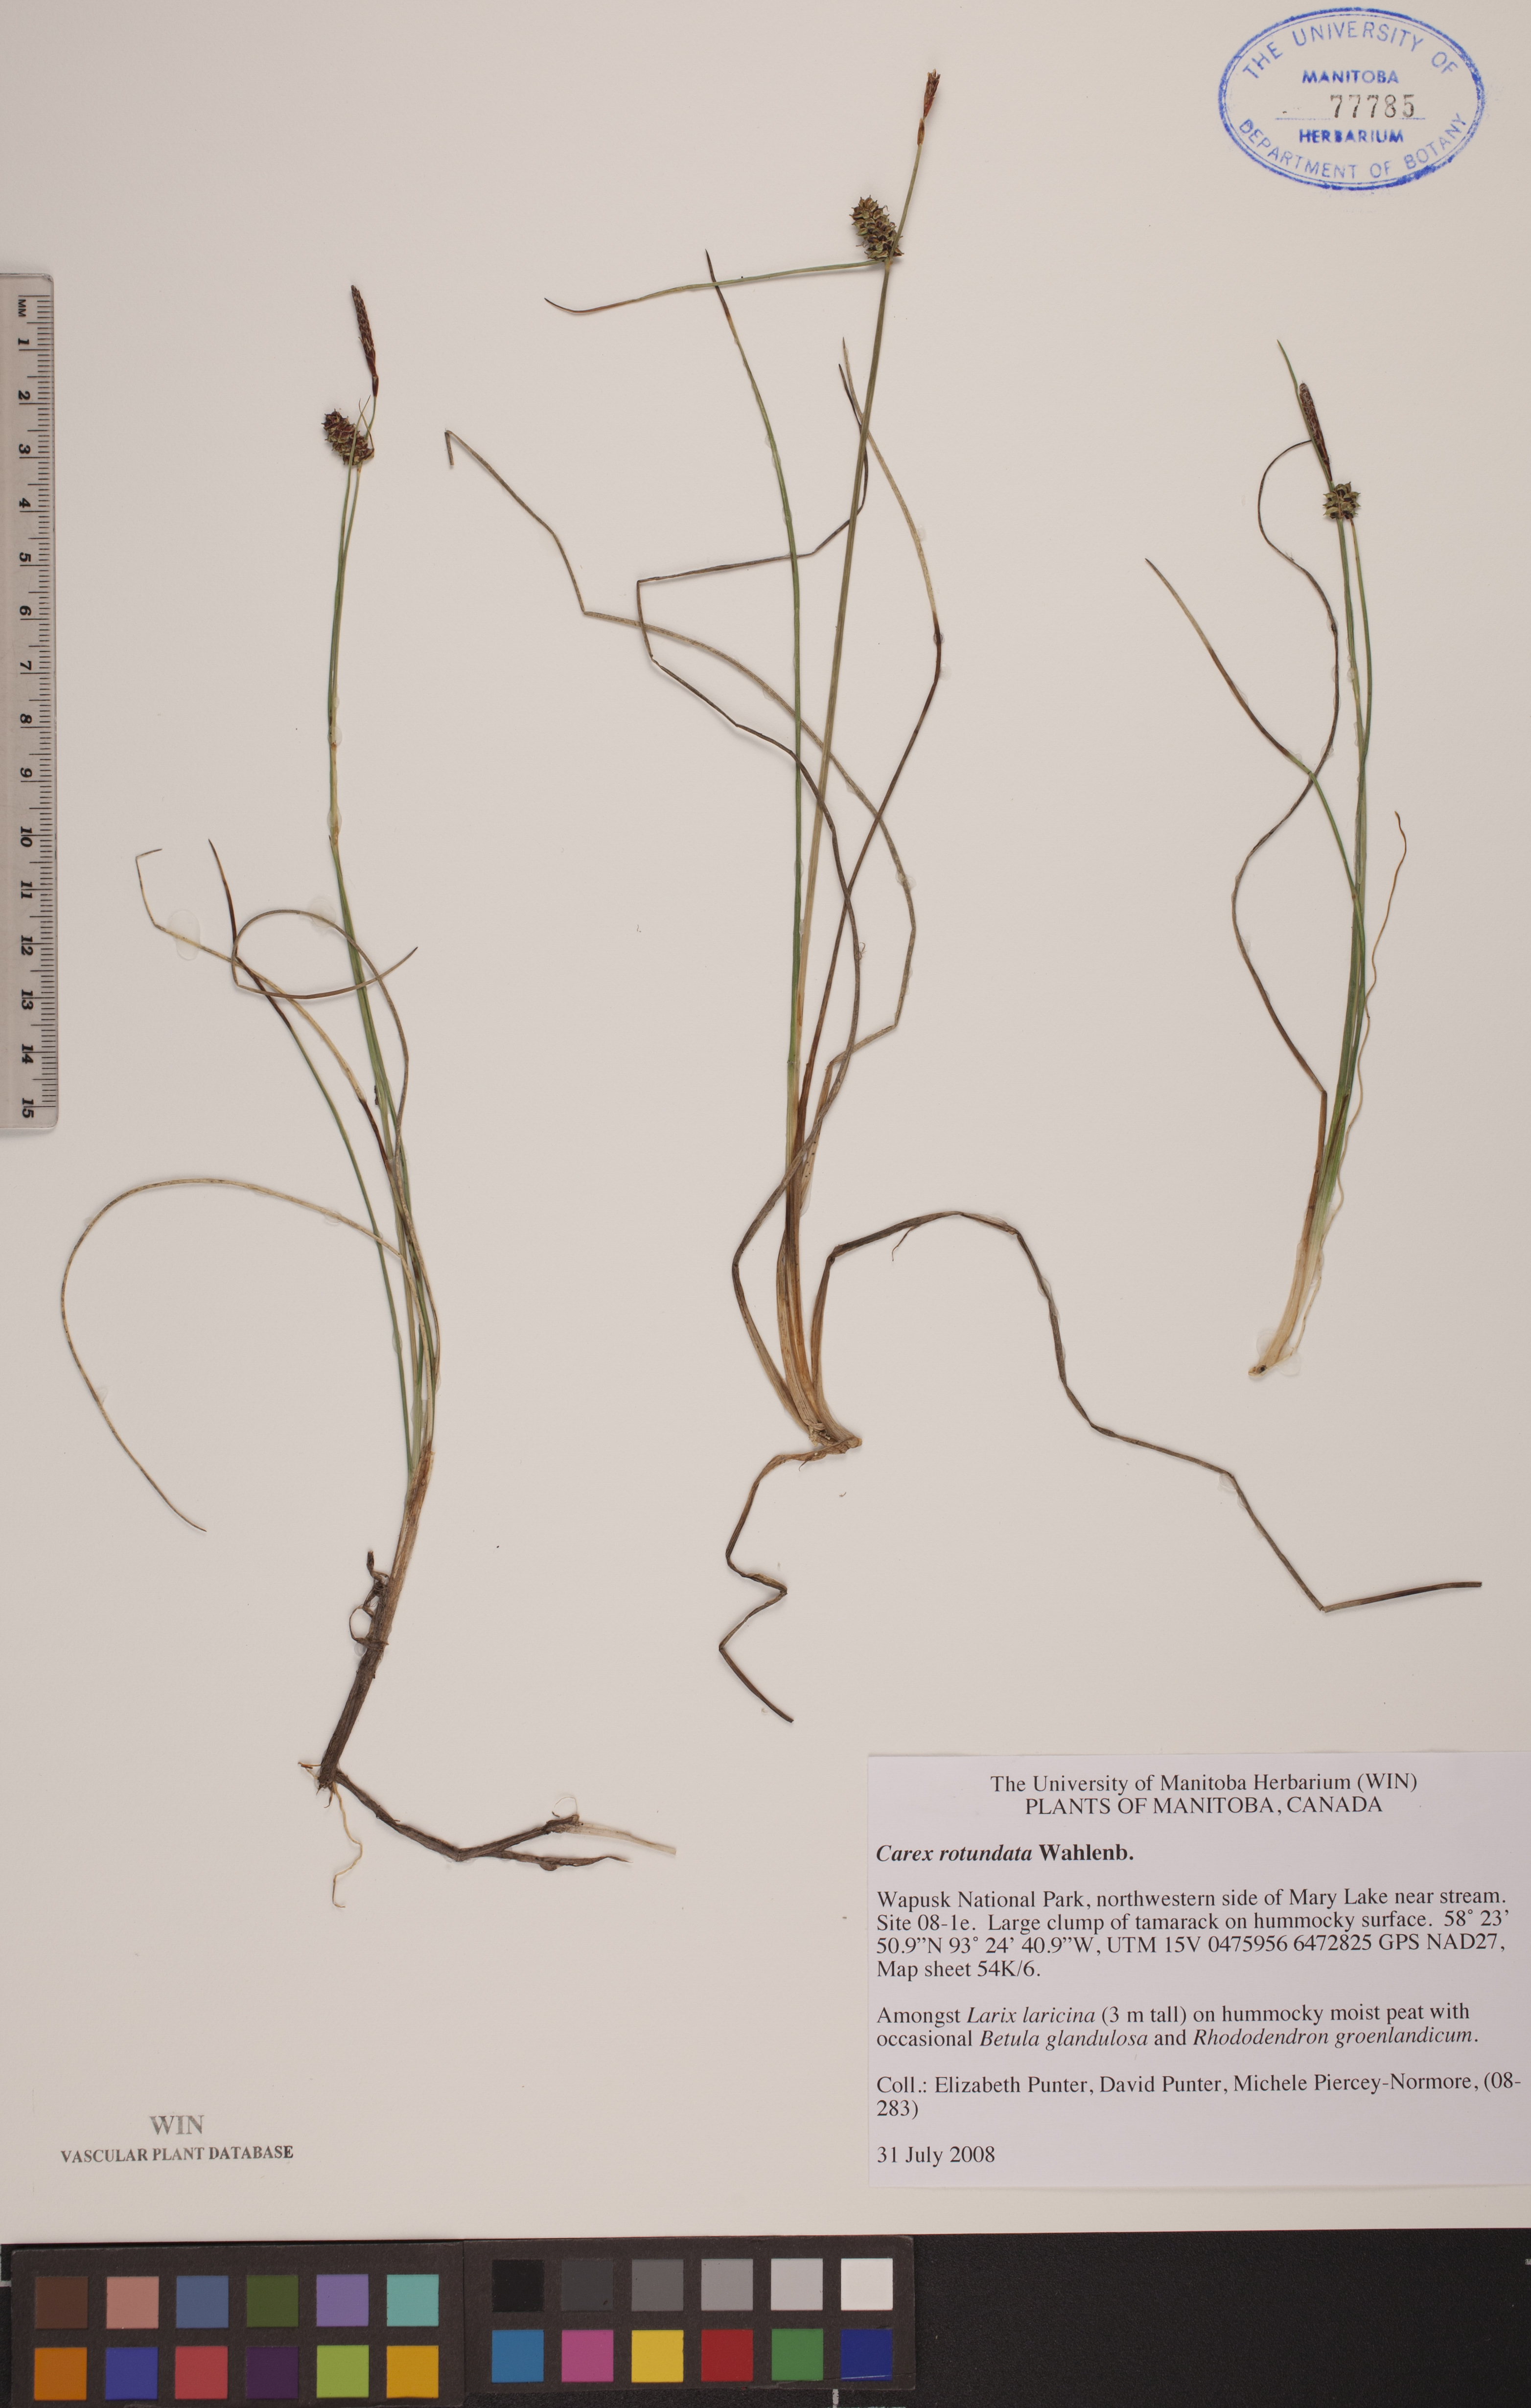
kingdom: Plantae
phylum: Tracheophyta
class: Liliopsida
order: Poales
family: Cyperaceae
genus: Carex
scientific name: Carex rotundata
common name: Round-fruited sedge
